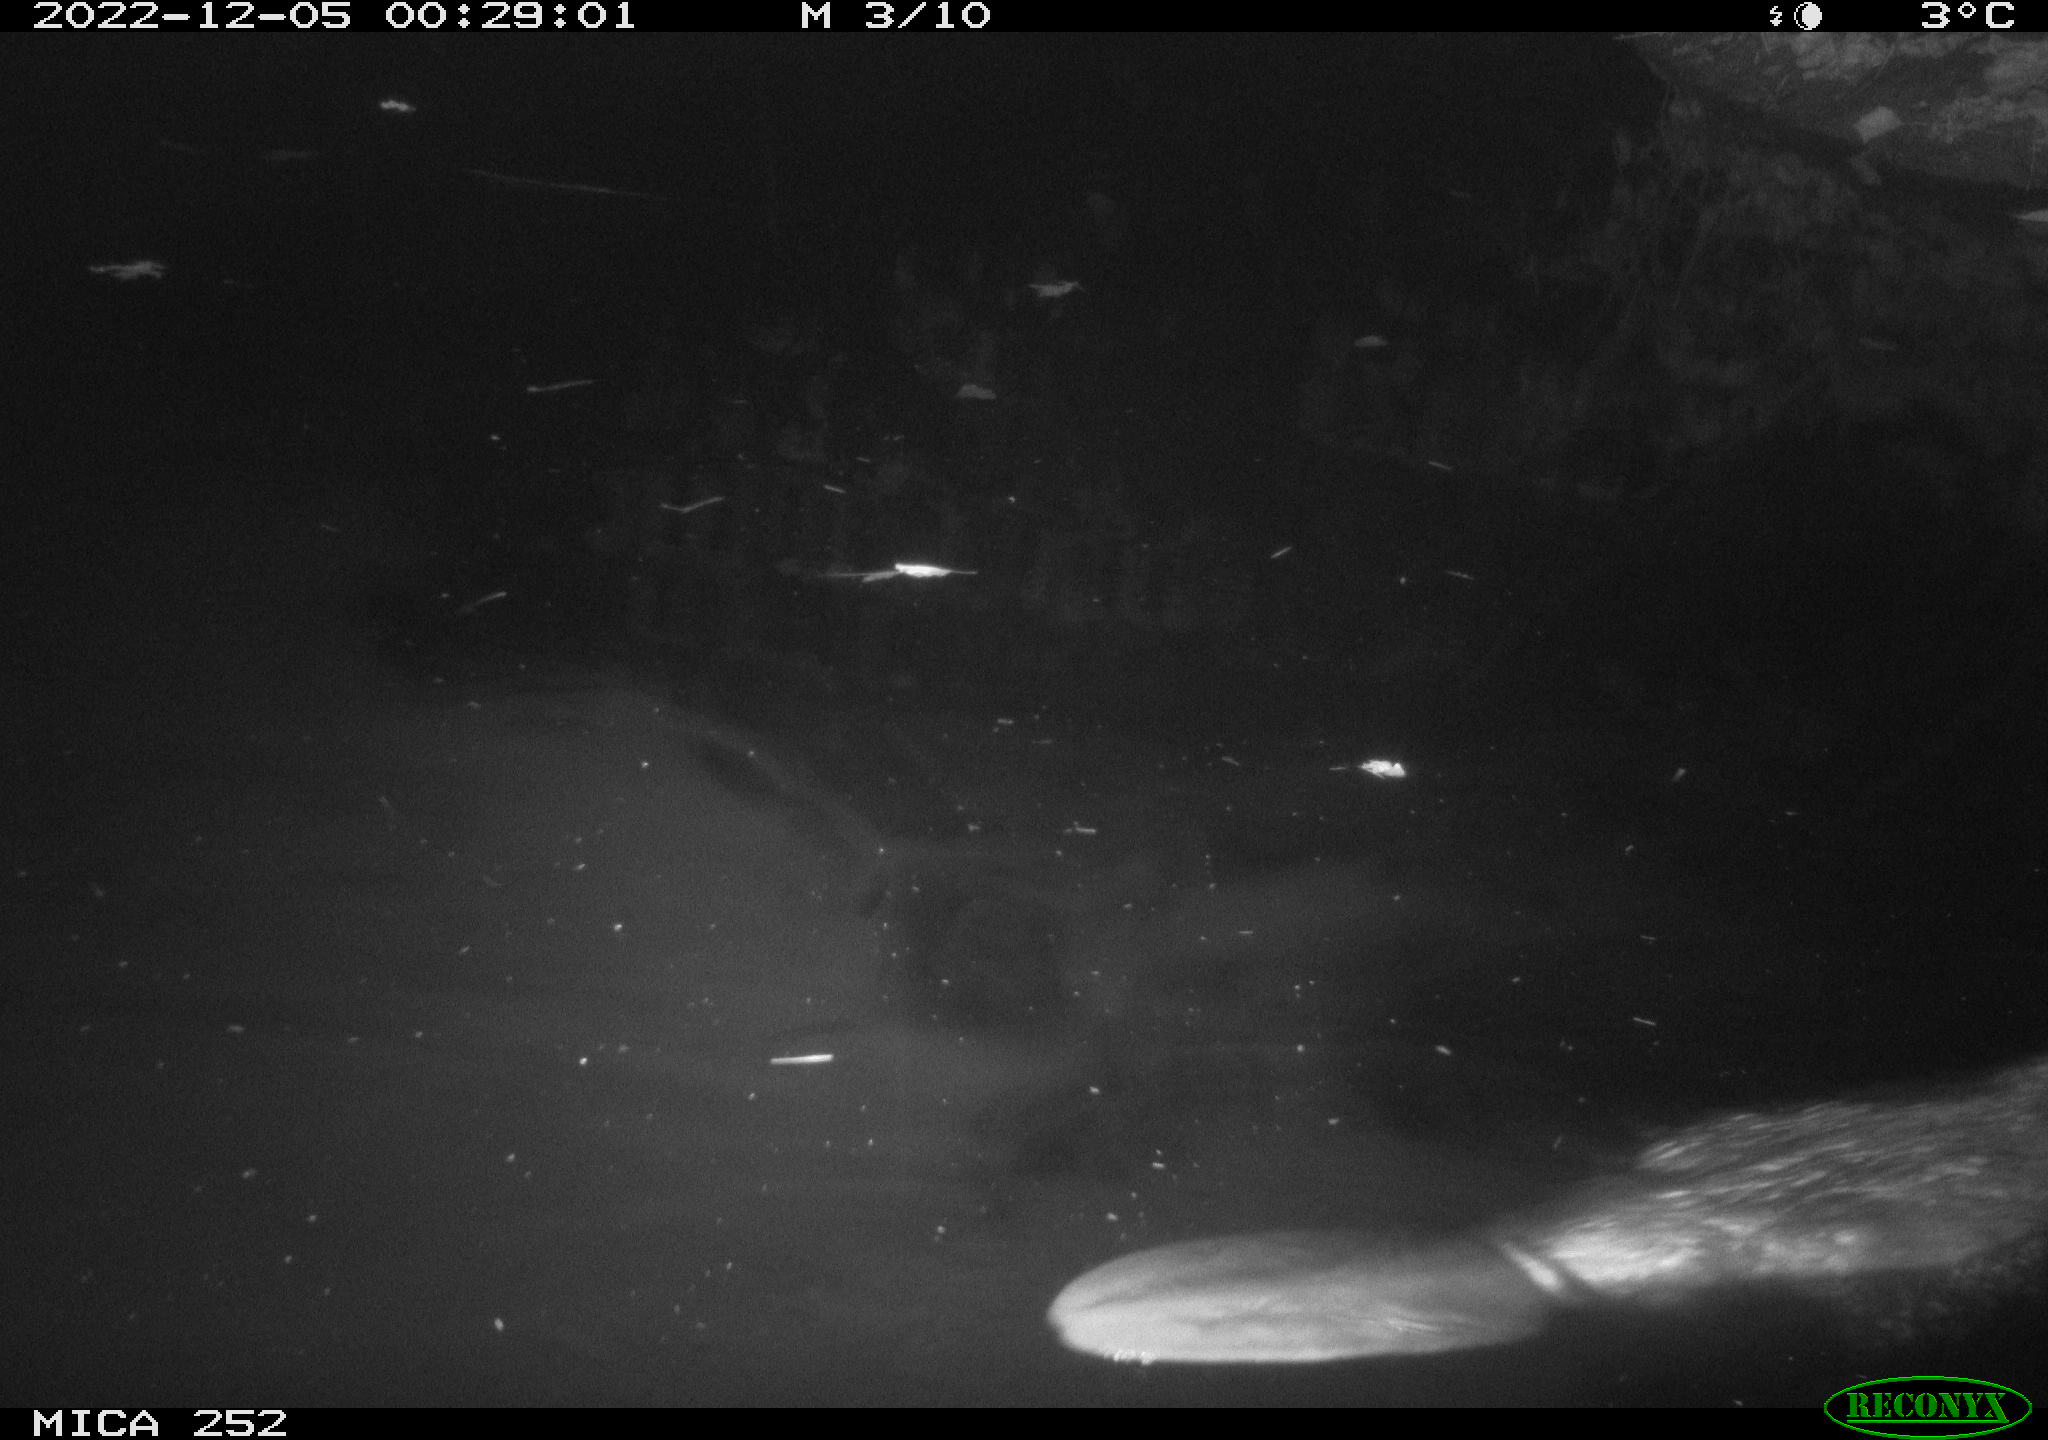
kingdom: Animalia
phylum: Chordata
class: Mammalia
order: Rodentia
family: Castoridae
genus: Castor
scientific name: Castor fiber
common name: Eurasian beaver
